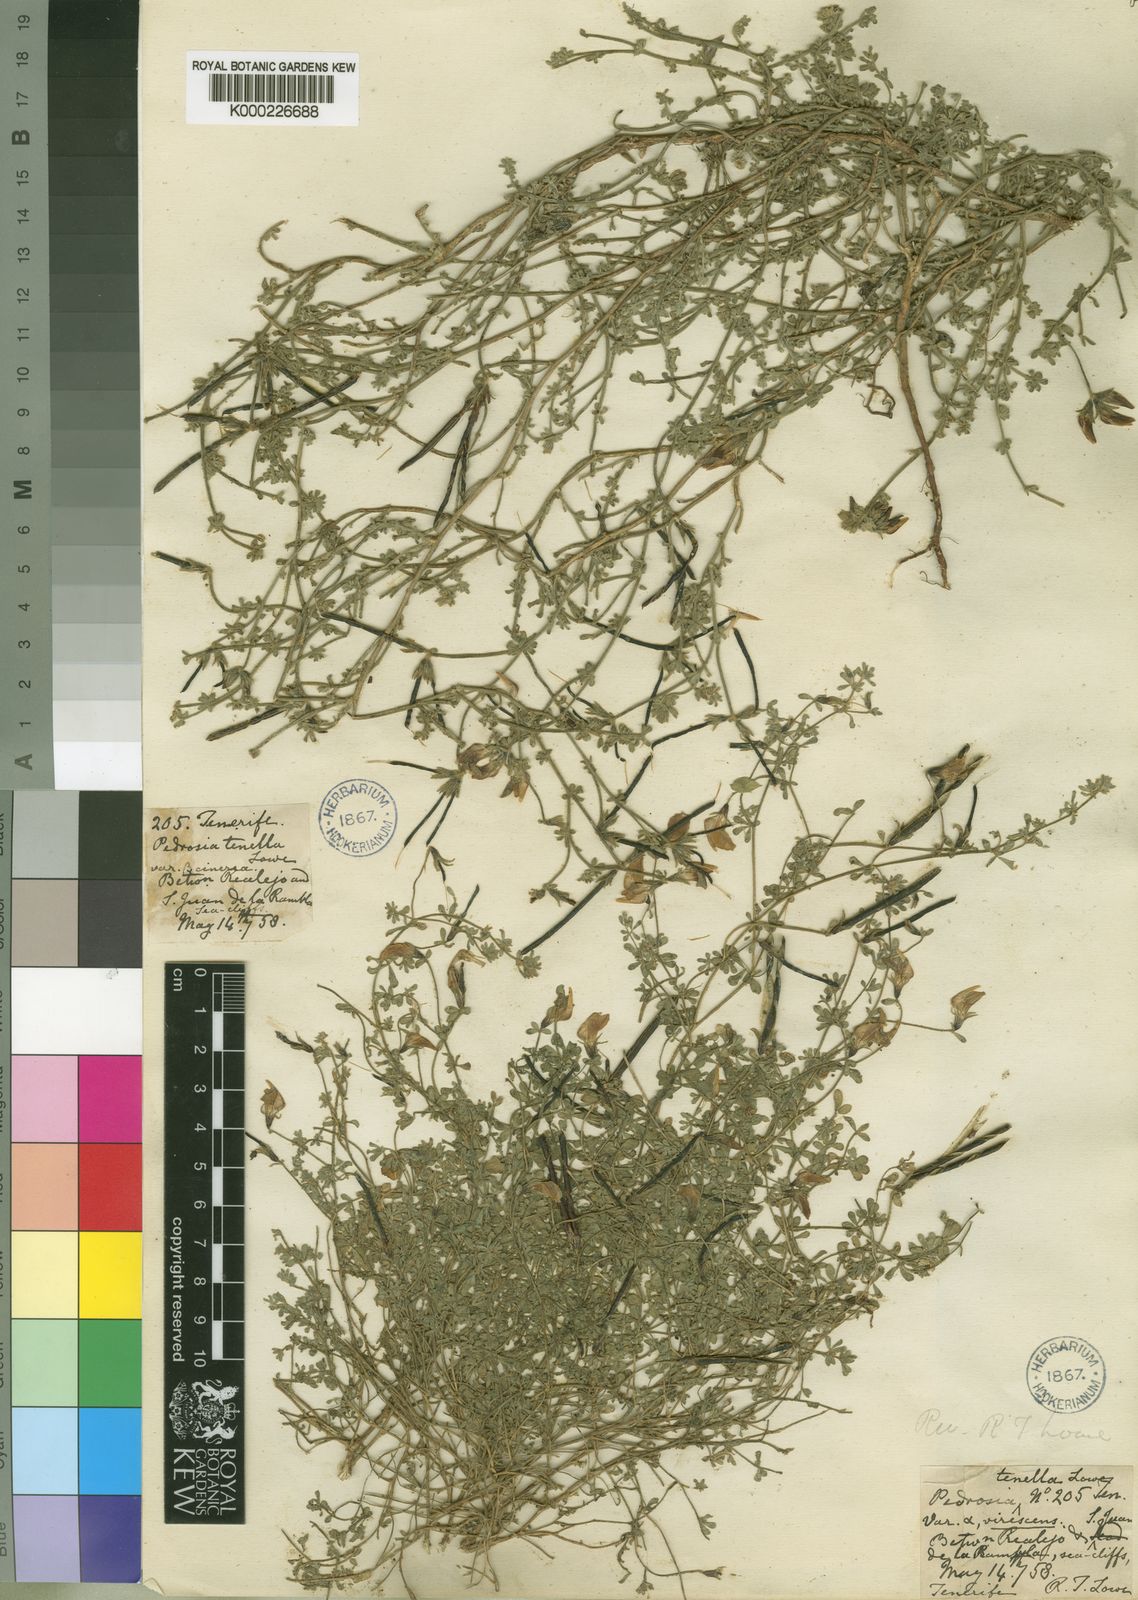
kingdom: Plantae
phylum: Tracheophyta
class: Magnoliopsida
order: Fabales
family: Fabaceae
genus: Lotus
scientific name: Lotus glaucus
